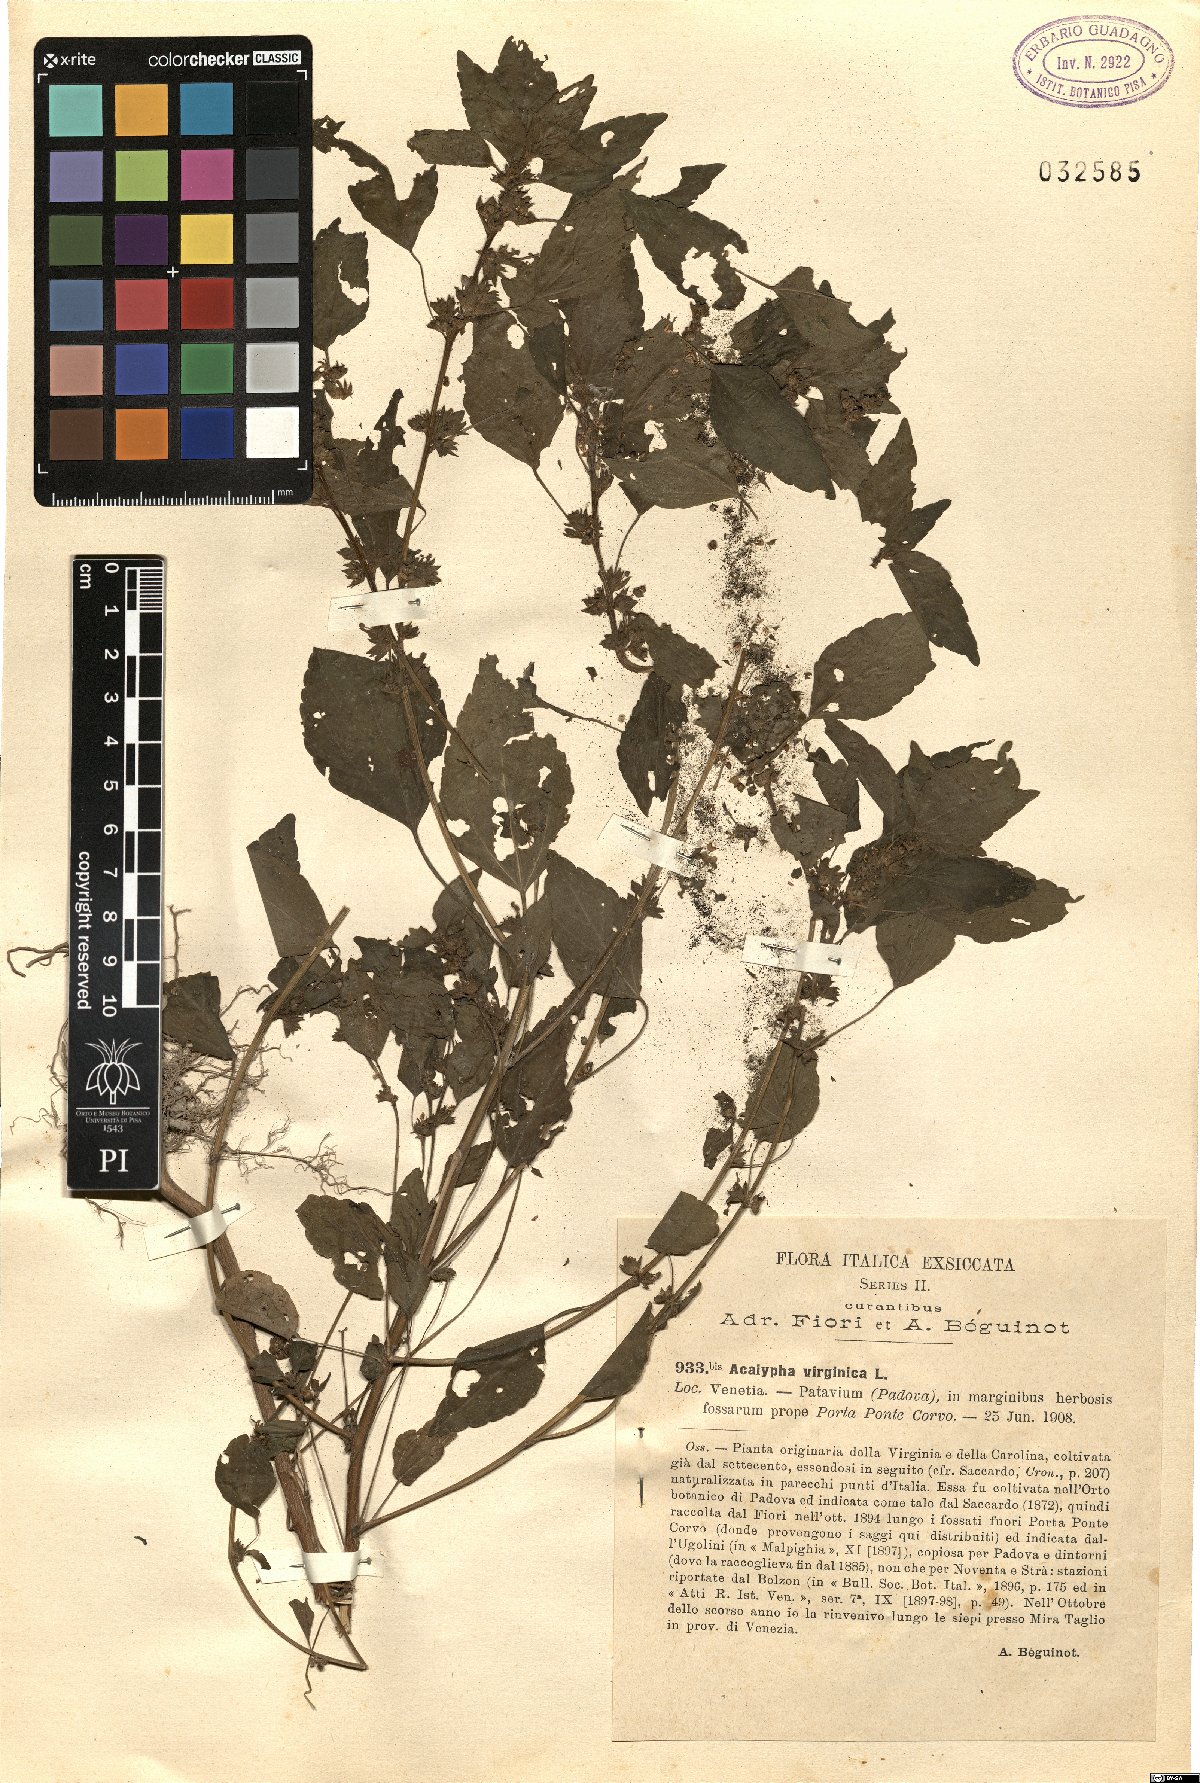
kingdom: Plantae
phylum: Tracheophyta
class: Magnoliopsida
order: Malpighiales
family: Euphorbiaceae
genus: Acalypha
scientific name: Acalypha virginica
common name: Virginia copperleaf
